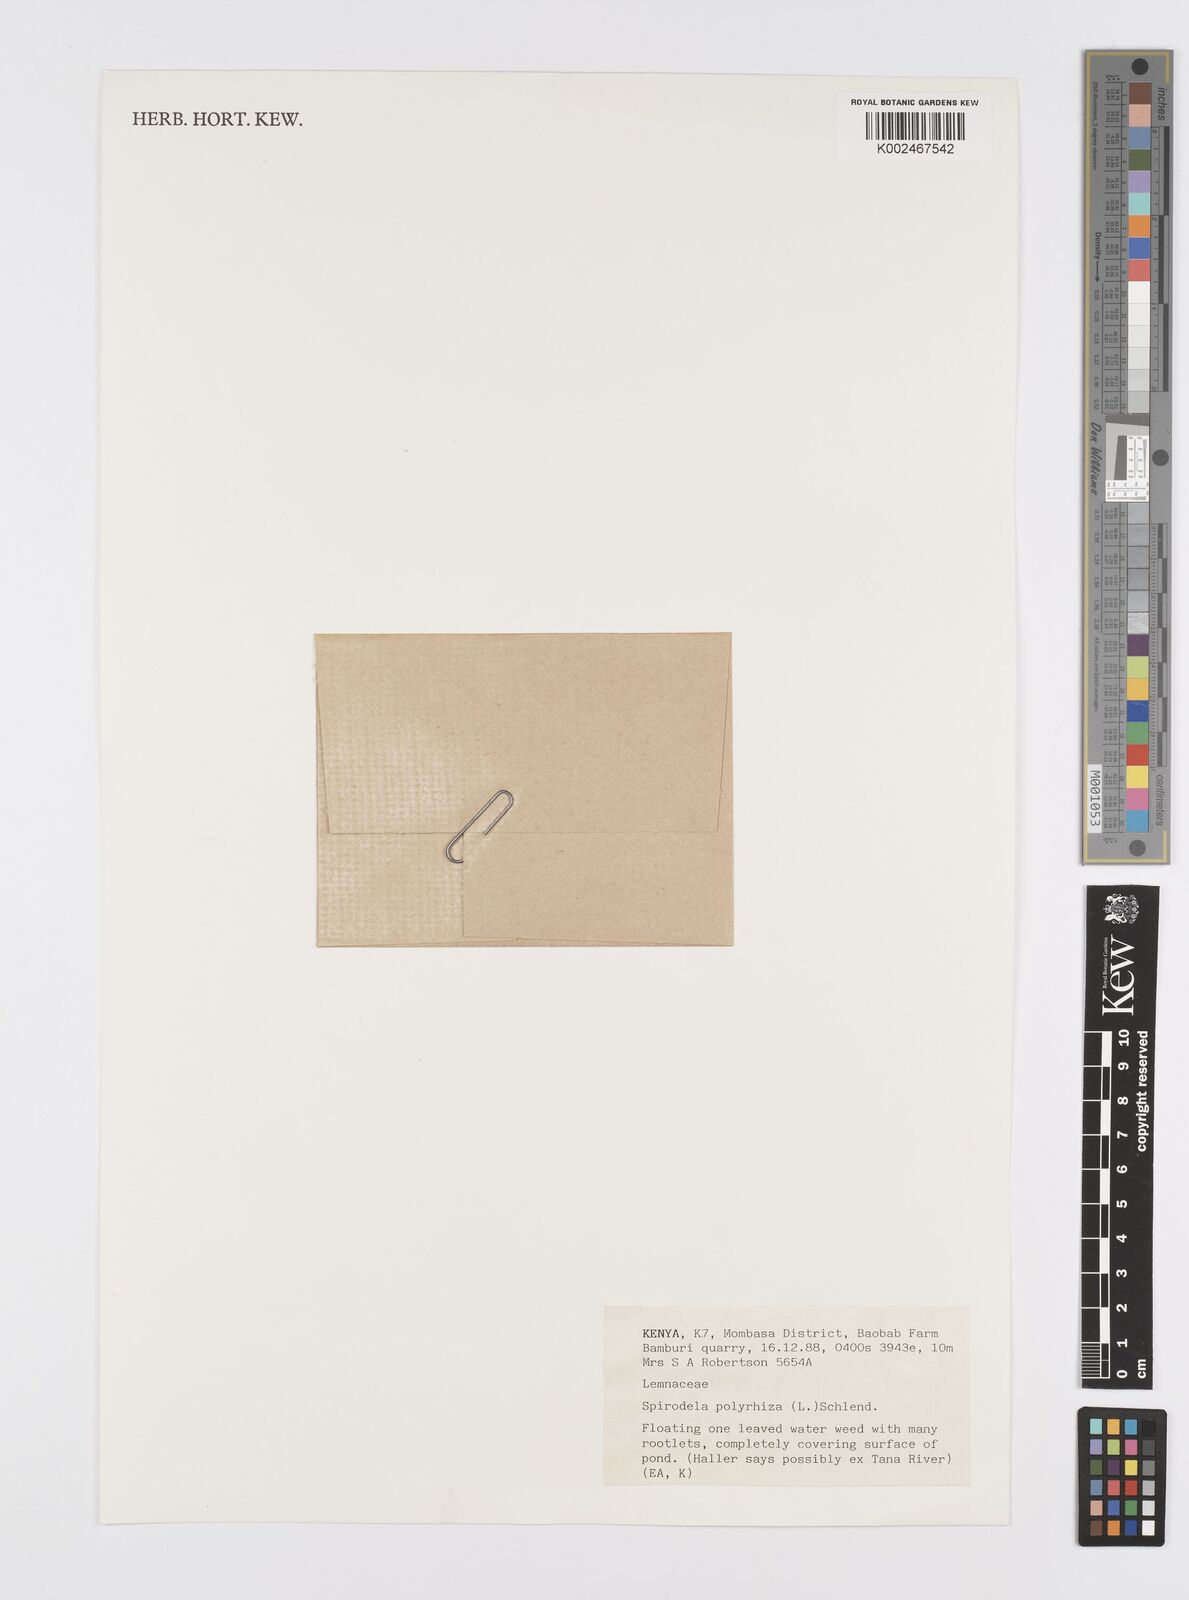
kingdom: Plantae
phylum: Tracheophyta
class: Liliopsida
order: Alismatales
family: Araceae
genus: Spirodela
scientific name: Spirodela polyrhiza
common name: Great duckweed
